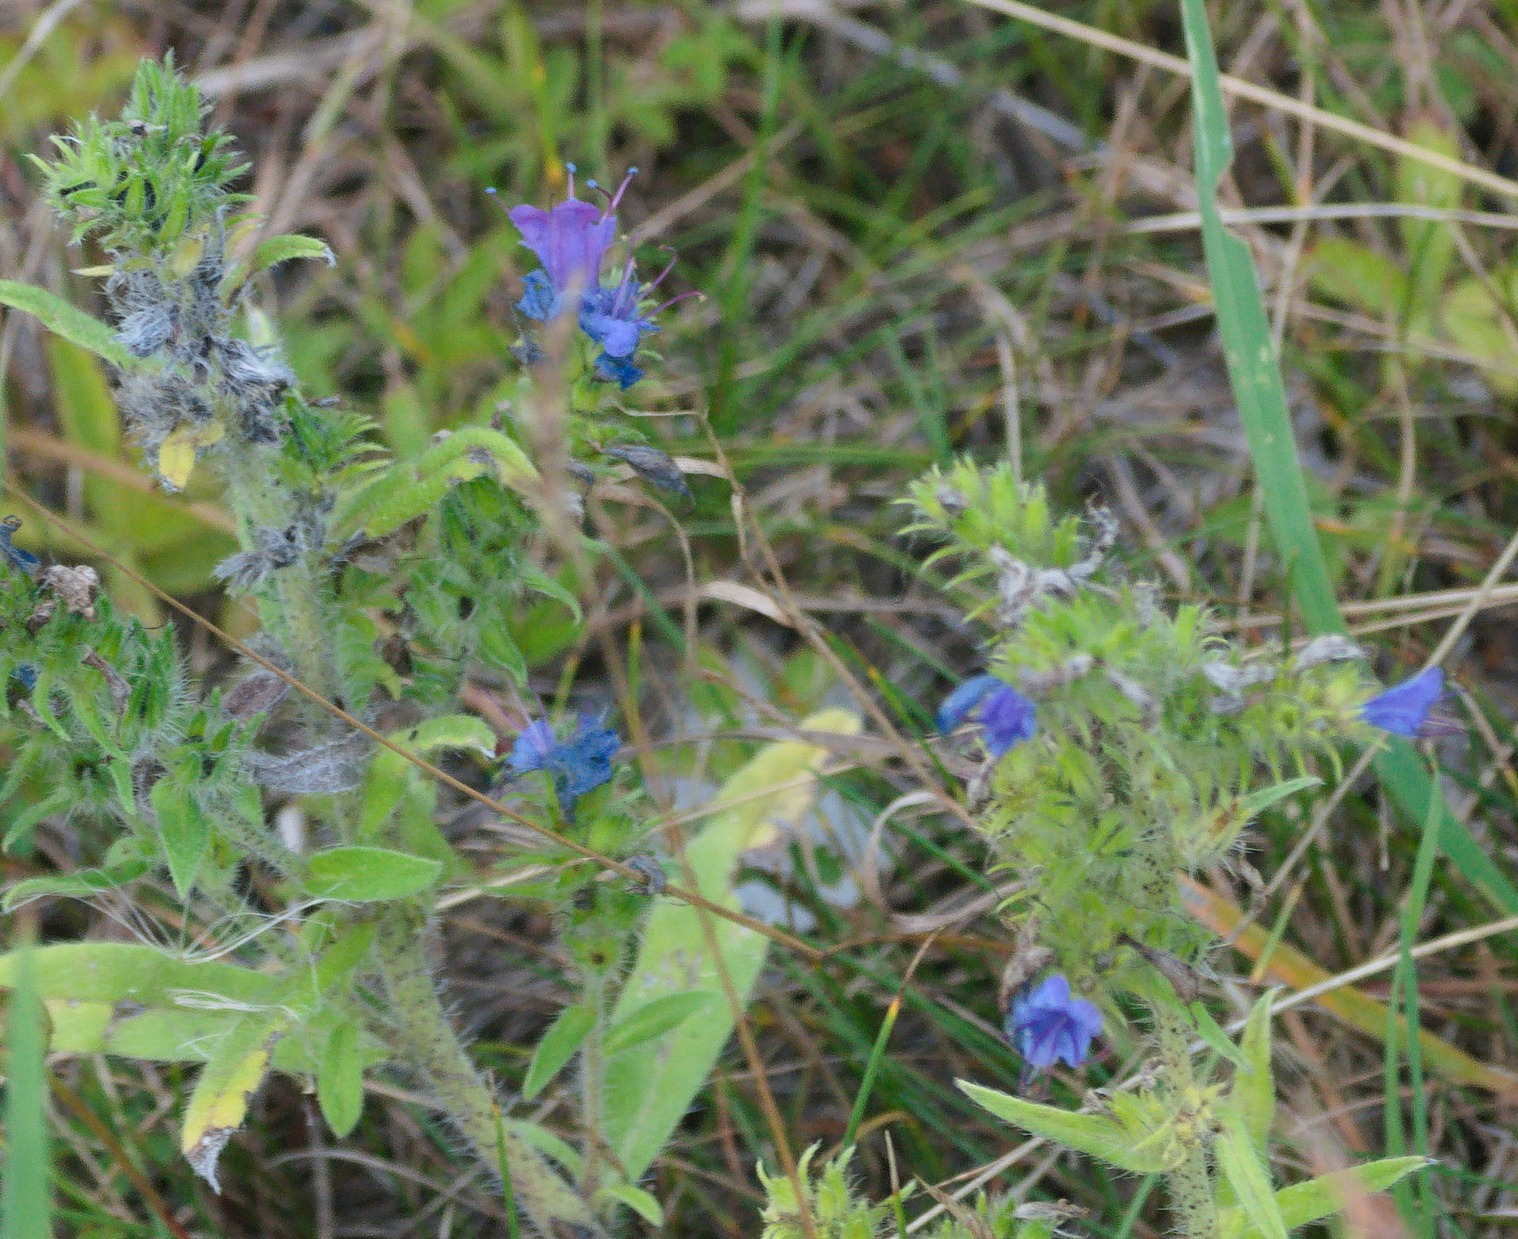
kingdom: Plantae
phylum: Tracheophyta
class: Magnoliopsida
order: Boraginales
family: Boraginaceae
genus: Echium
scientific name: Echium vulgare
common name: Slangehoved
